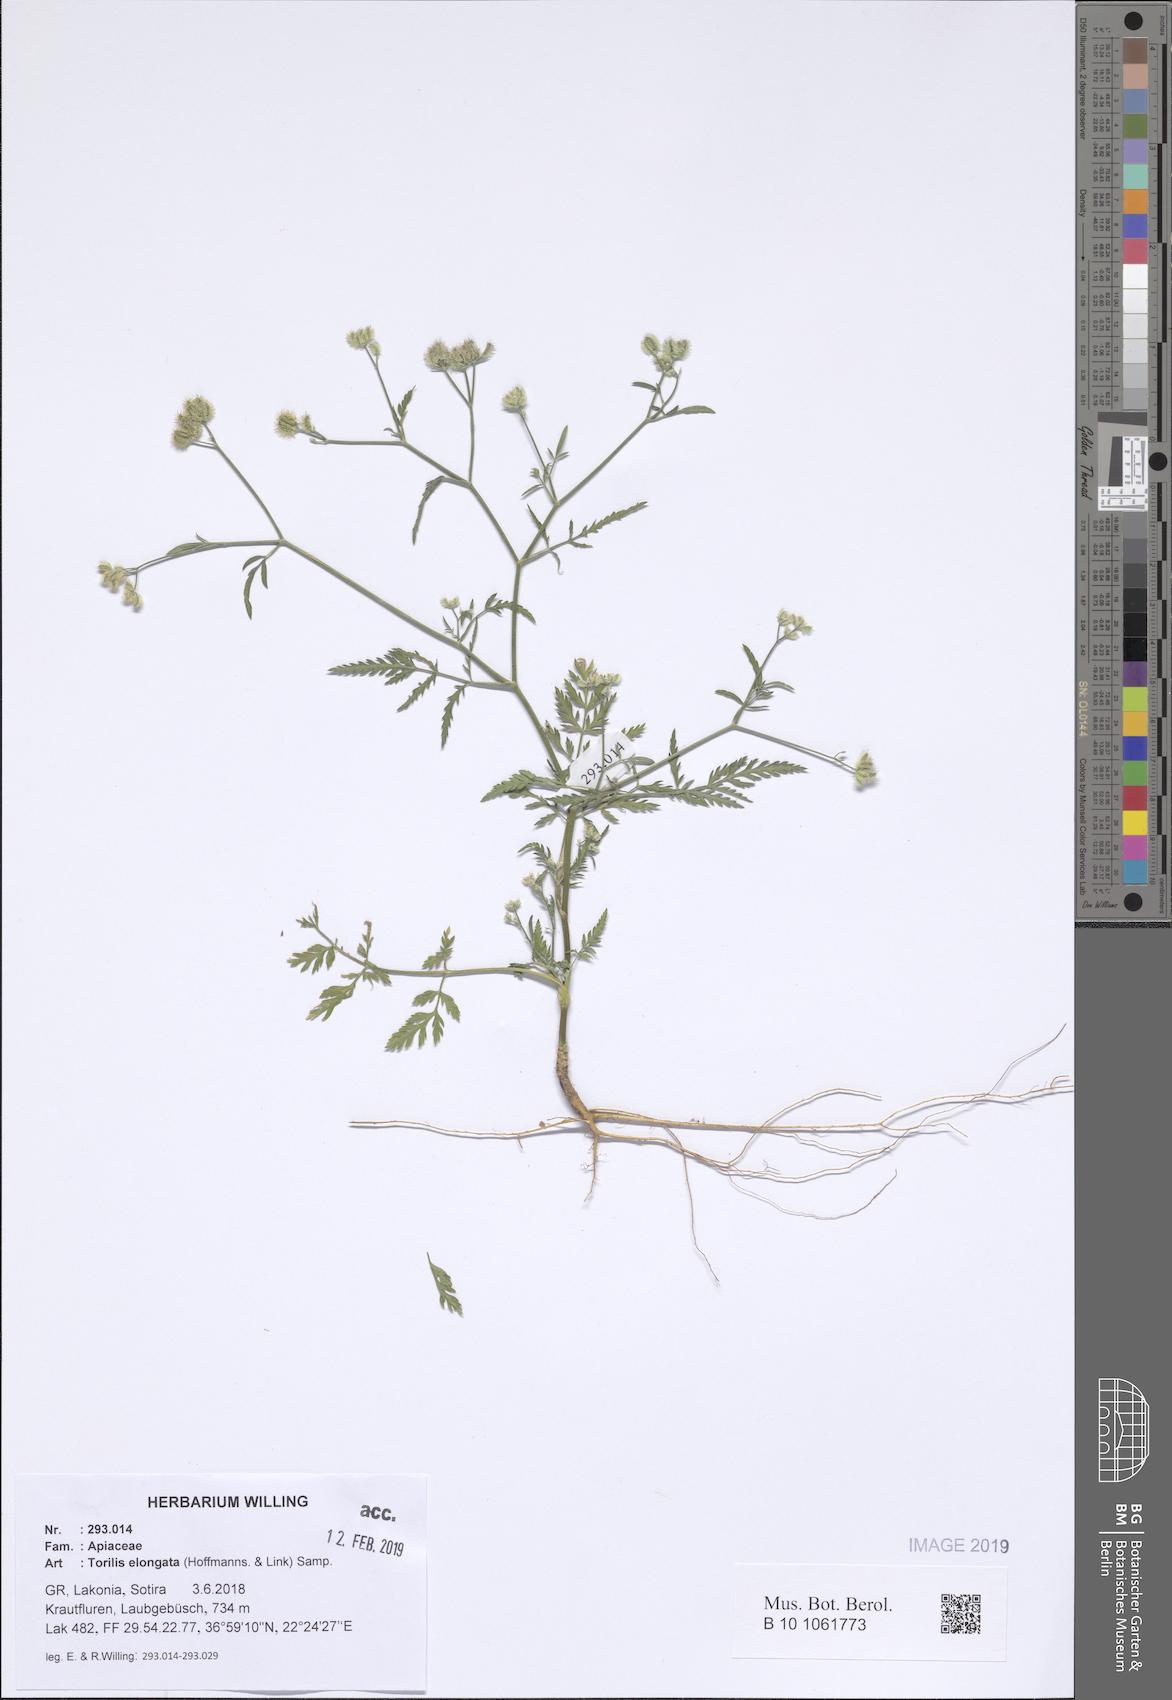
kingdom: Plantae
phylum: Tracheophyta
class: Magnoliopsida
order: Apiales
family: Apiaceae
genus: Torilis
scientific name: Torilis elongata
